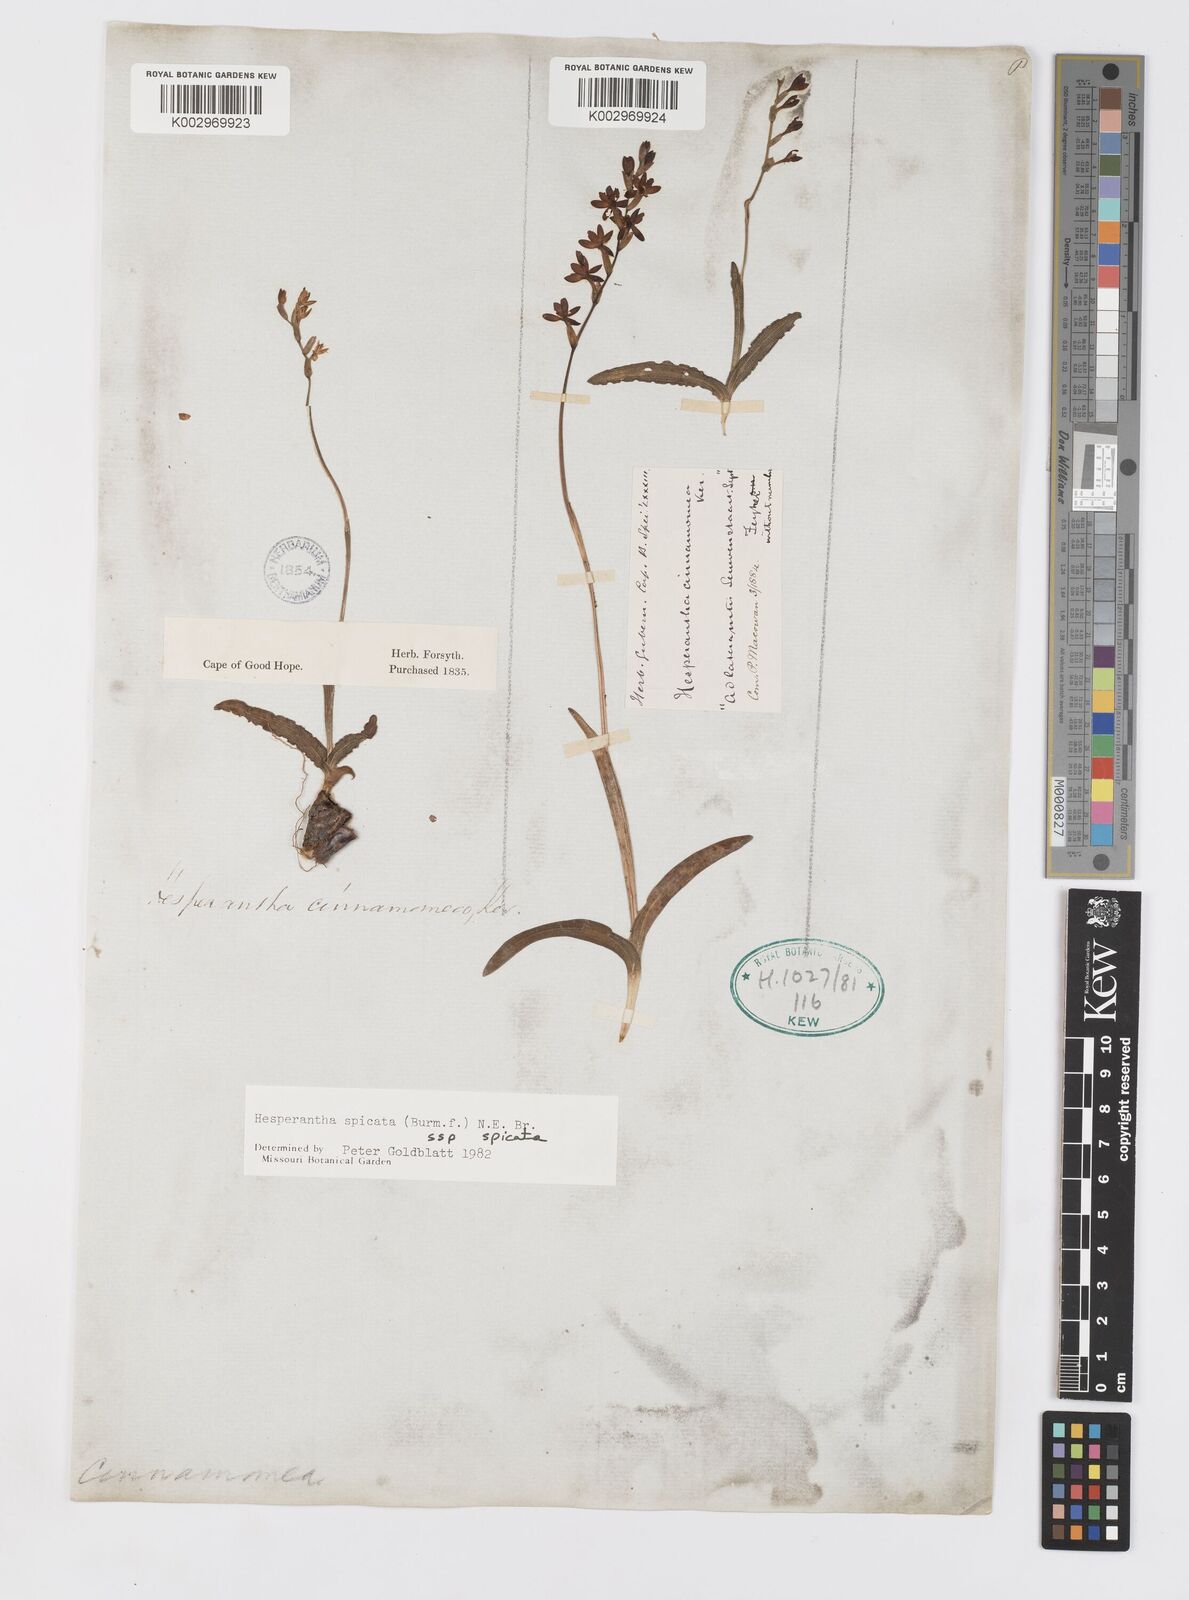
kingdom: Plantae
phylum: Tracheophyta
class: Liliopsida
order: Asparagales
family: Iridaceae
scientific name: Iridaceae
